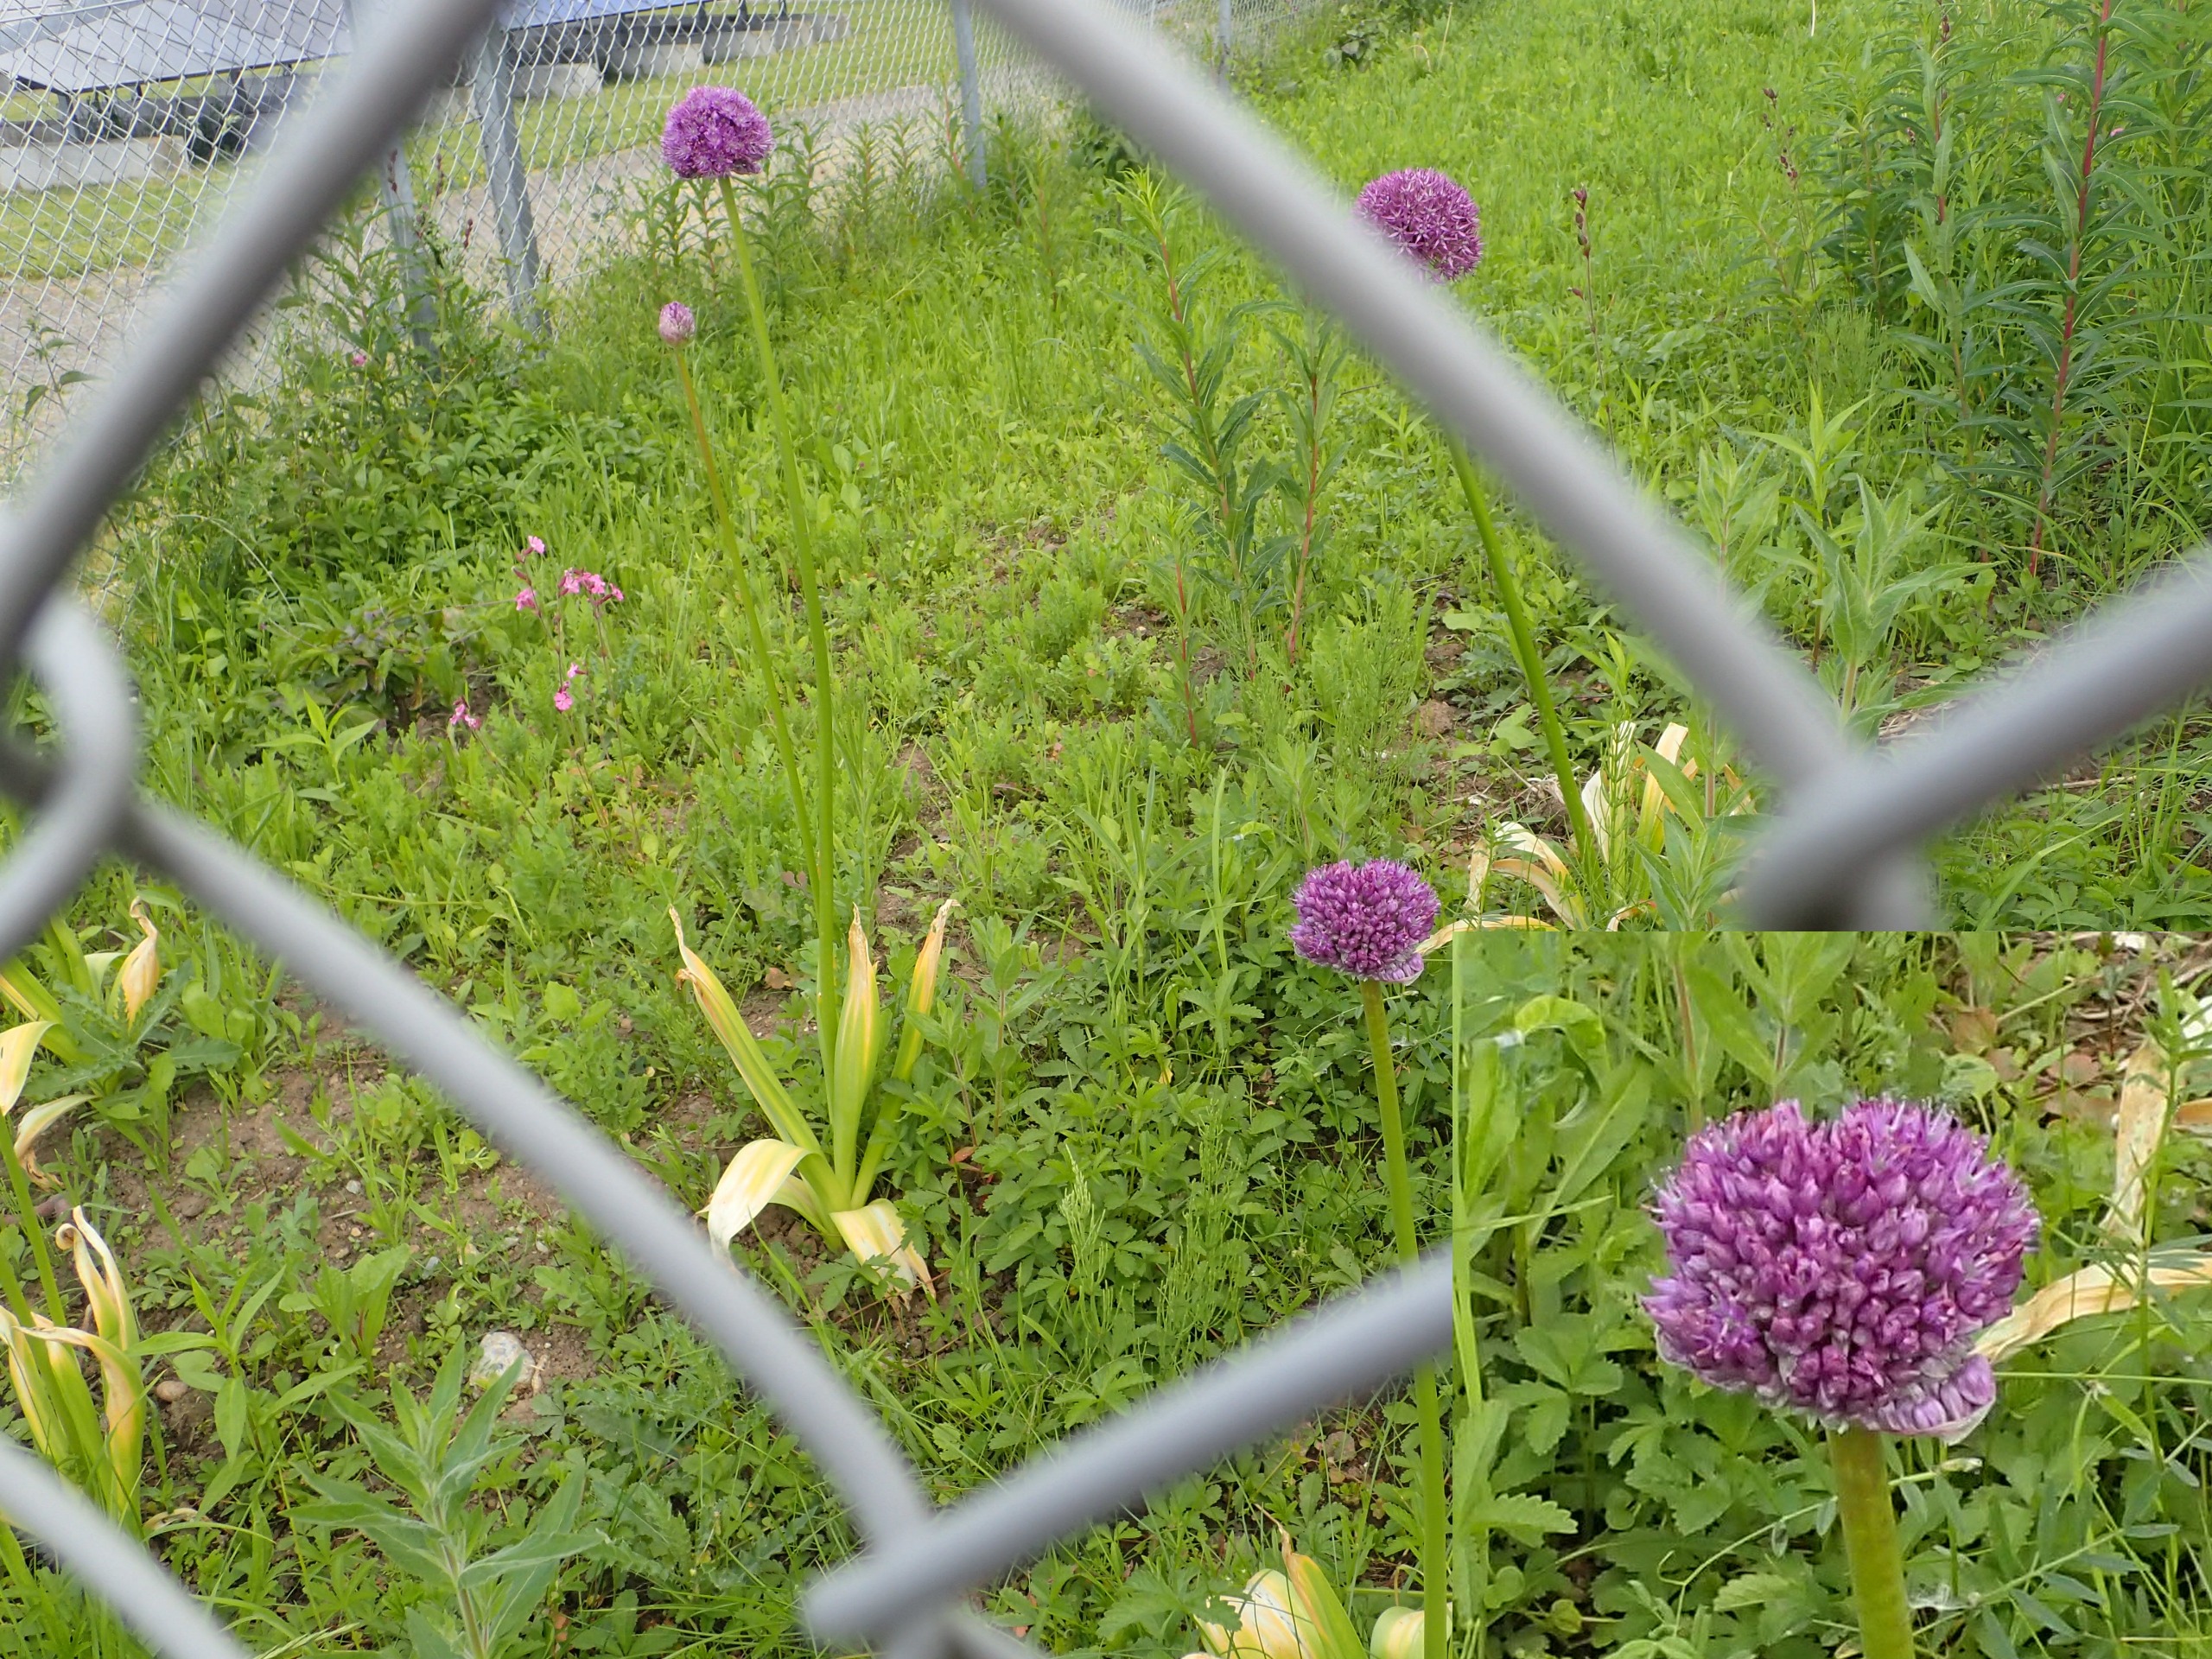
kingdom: Plantae
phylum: Tracheophyta
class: Liliopsida
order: Asparagales
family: Amaryllidaceae
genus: Allium
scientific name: Allium hollandicum
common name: Kirgisisk pryd-løg
